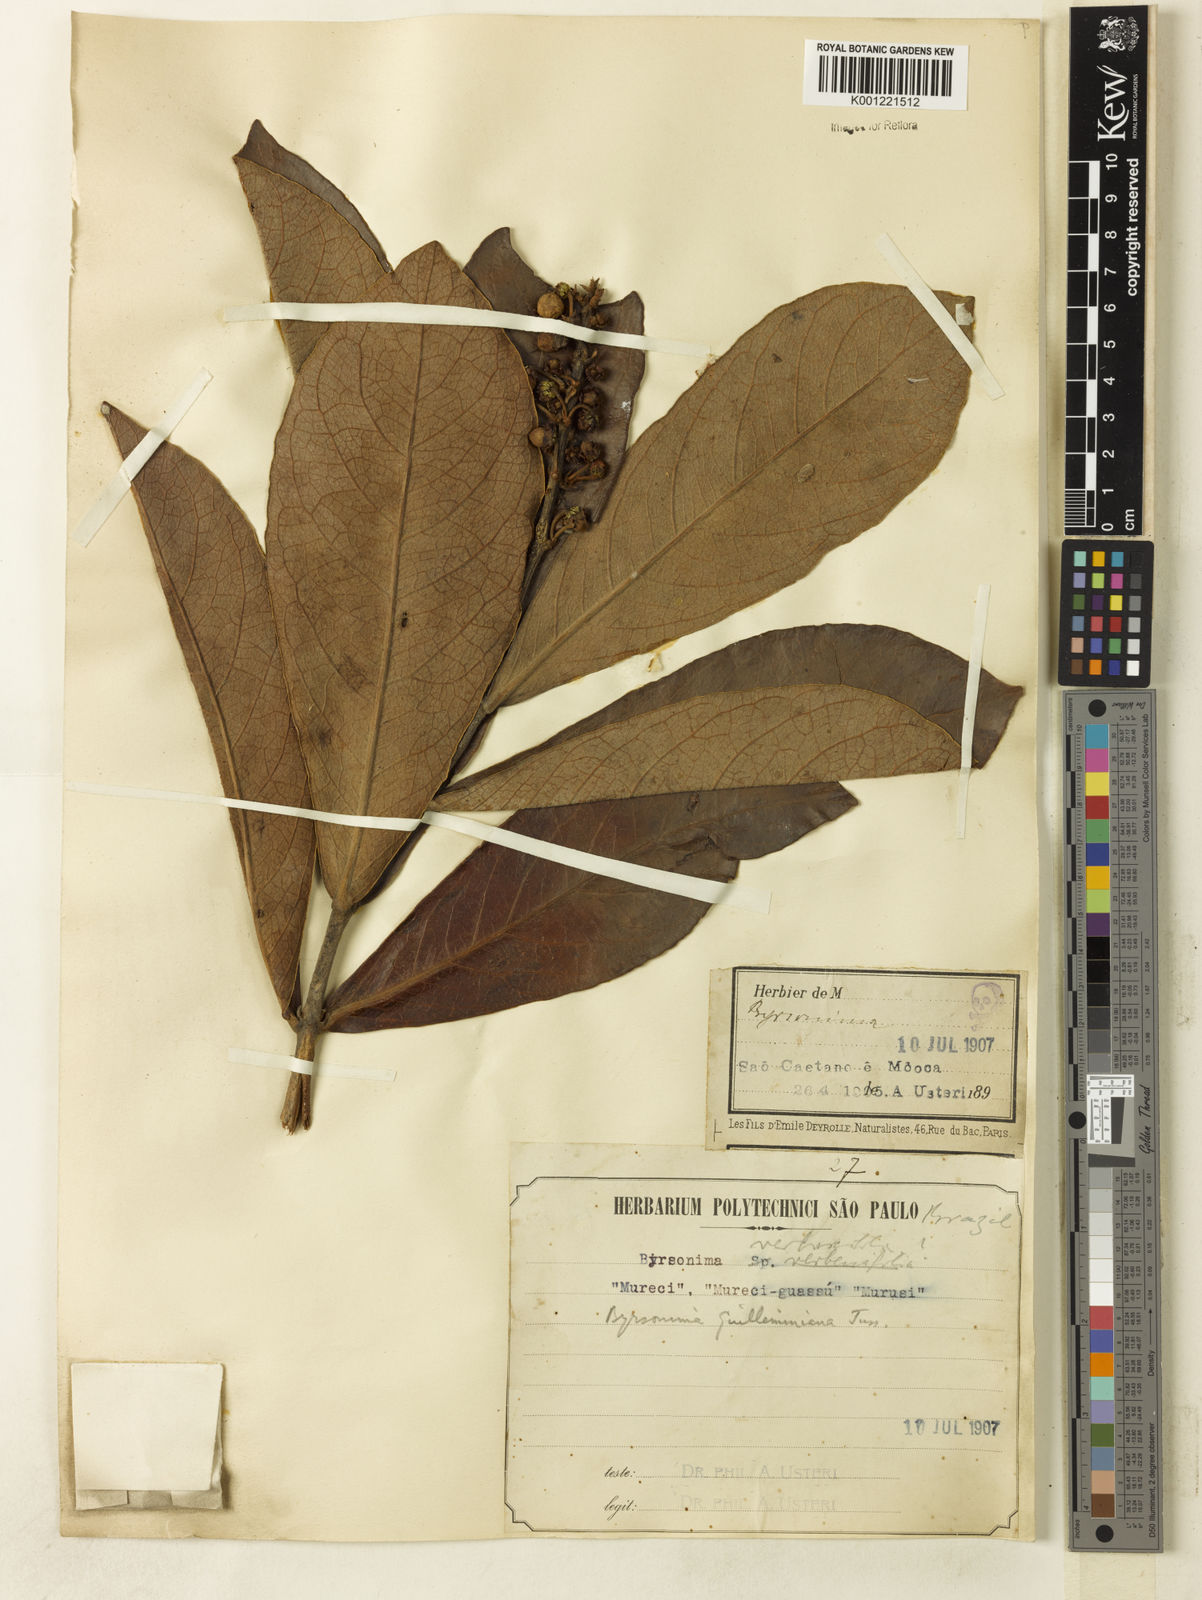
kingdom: Plantae
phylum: Tracheophyta
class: Magnoliopsida
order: Malpighiales
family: Malpighiaceae
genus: Byrsonima
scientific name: Byrsonima guilleminiana
